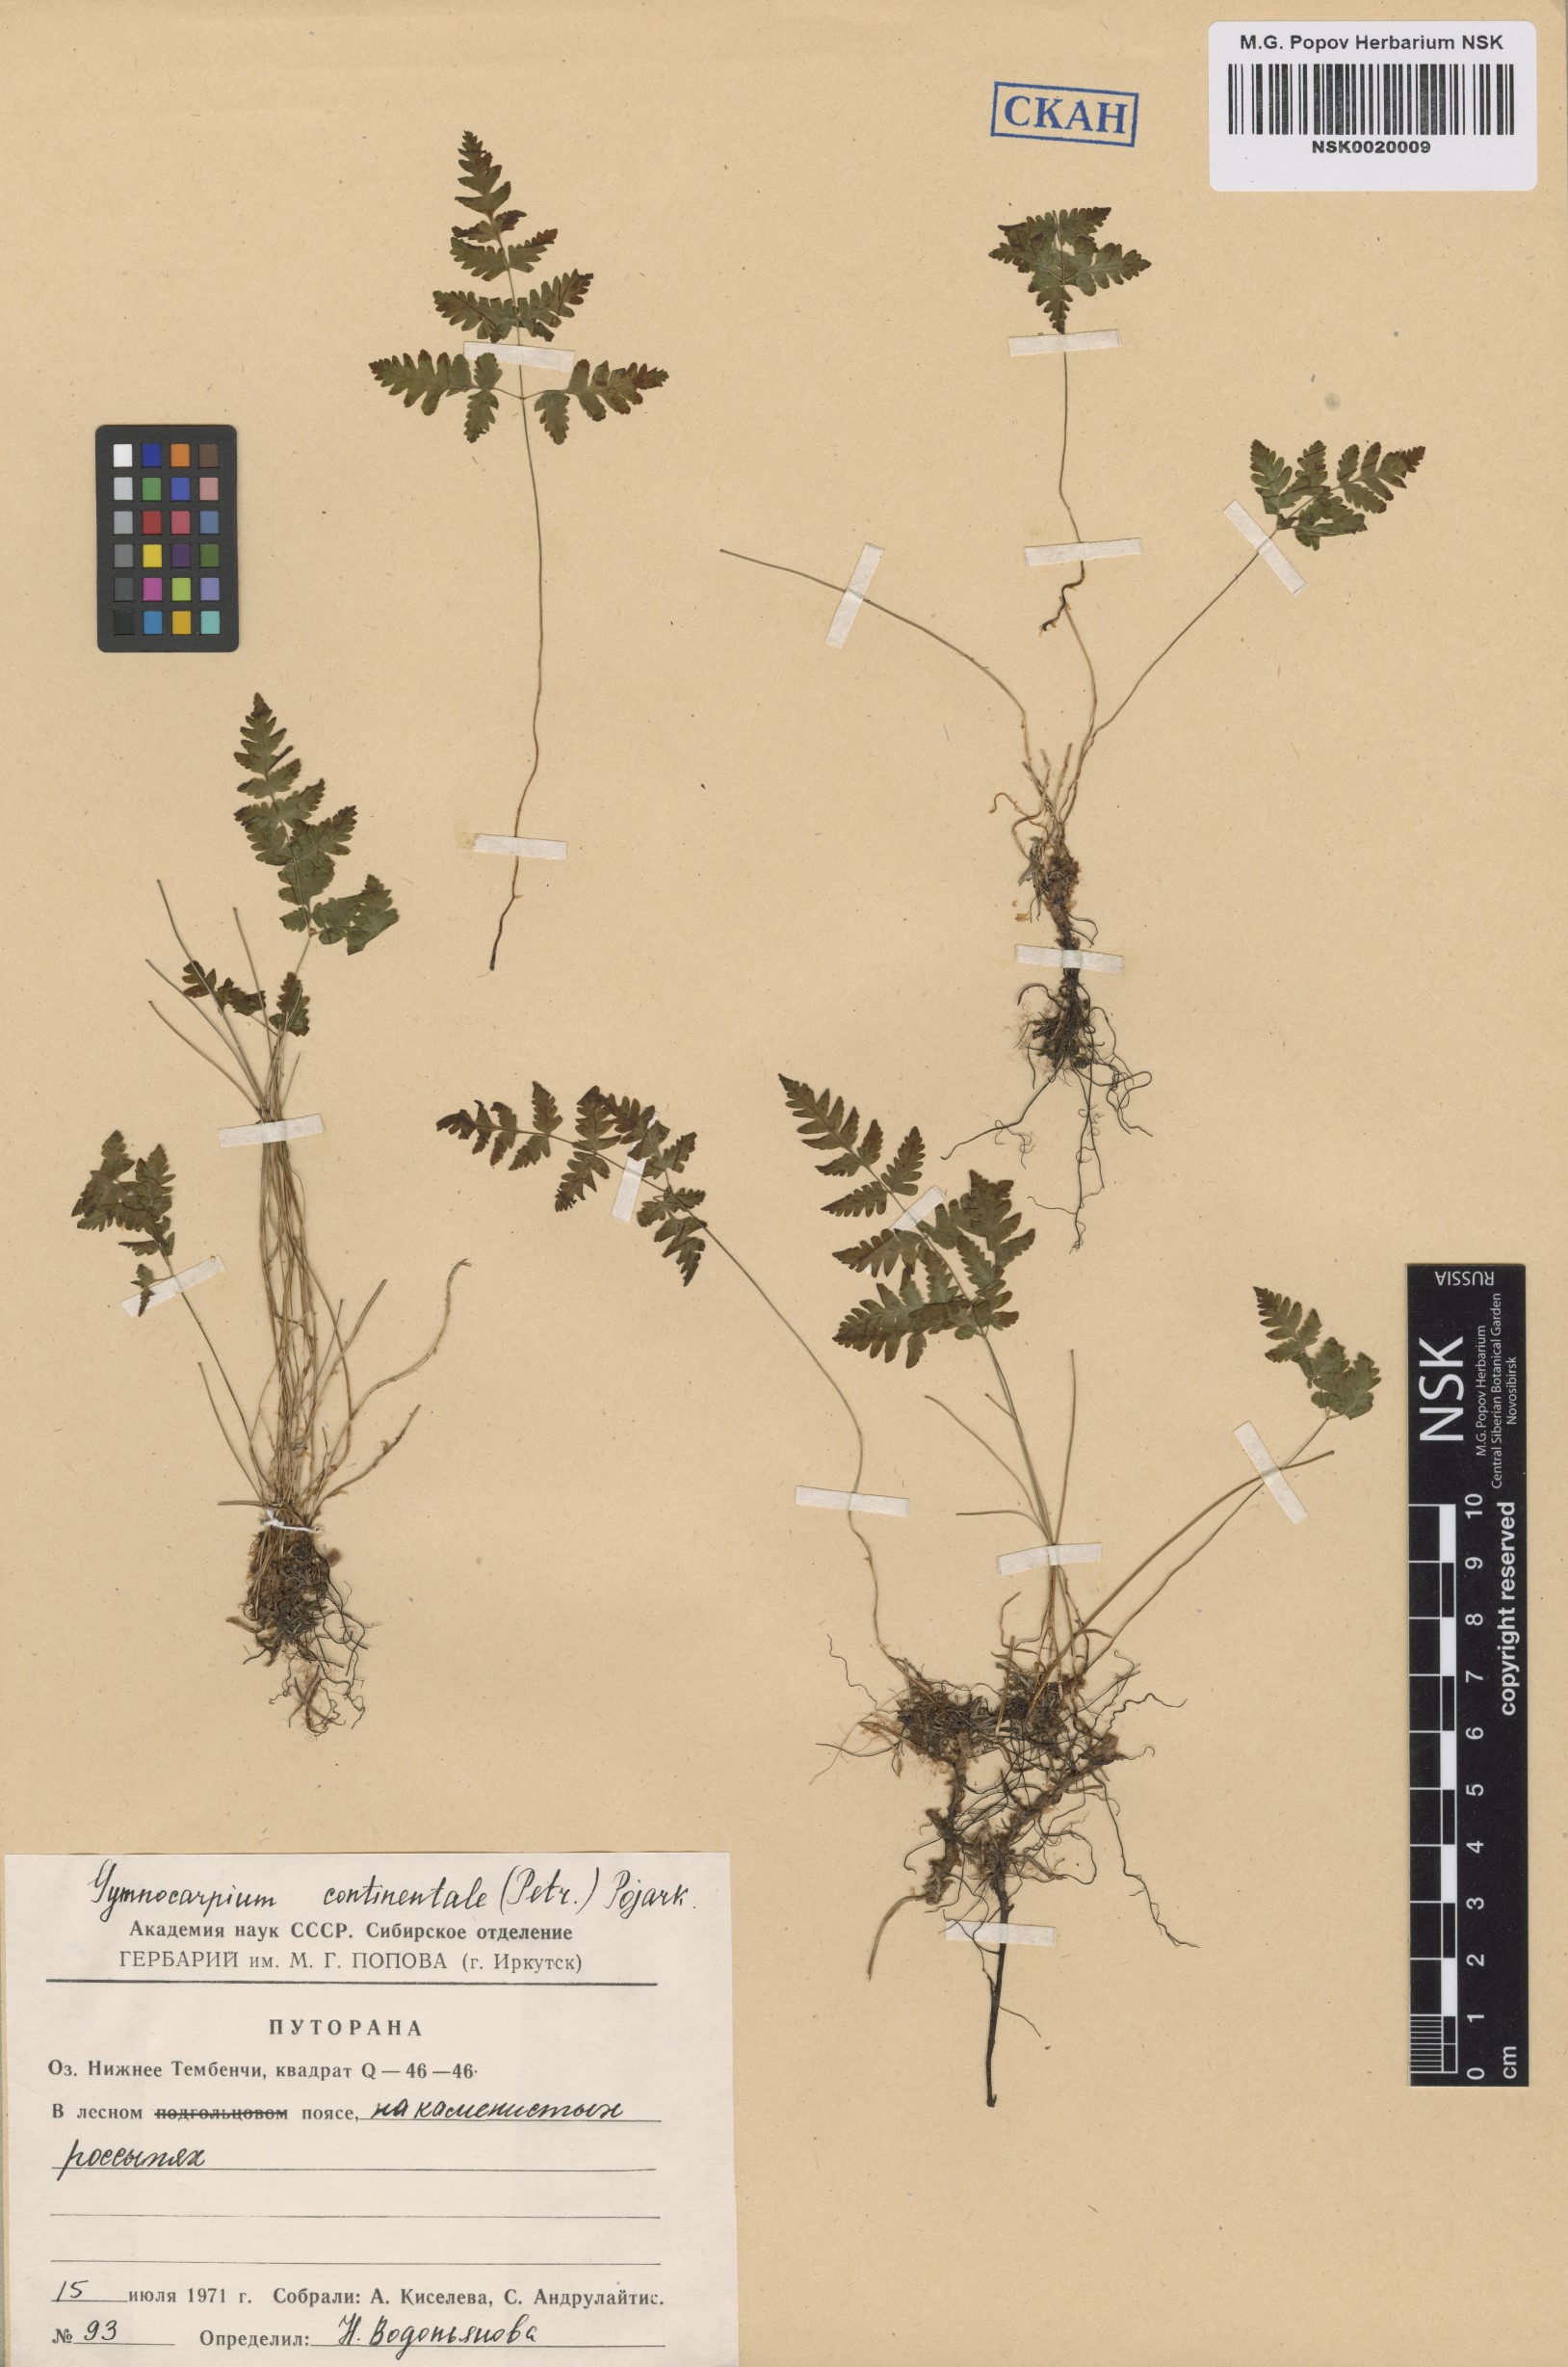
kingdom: Plantae
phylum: Tracheophyta
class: Polypodiopsida
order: Polypodiales
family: Cystopteridaceae
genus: Gymnocarpium
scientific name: Gymnocarpium continentale
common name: Asian oak fern
